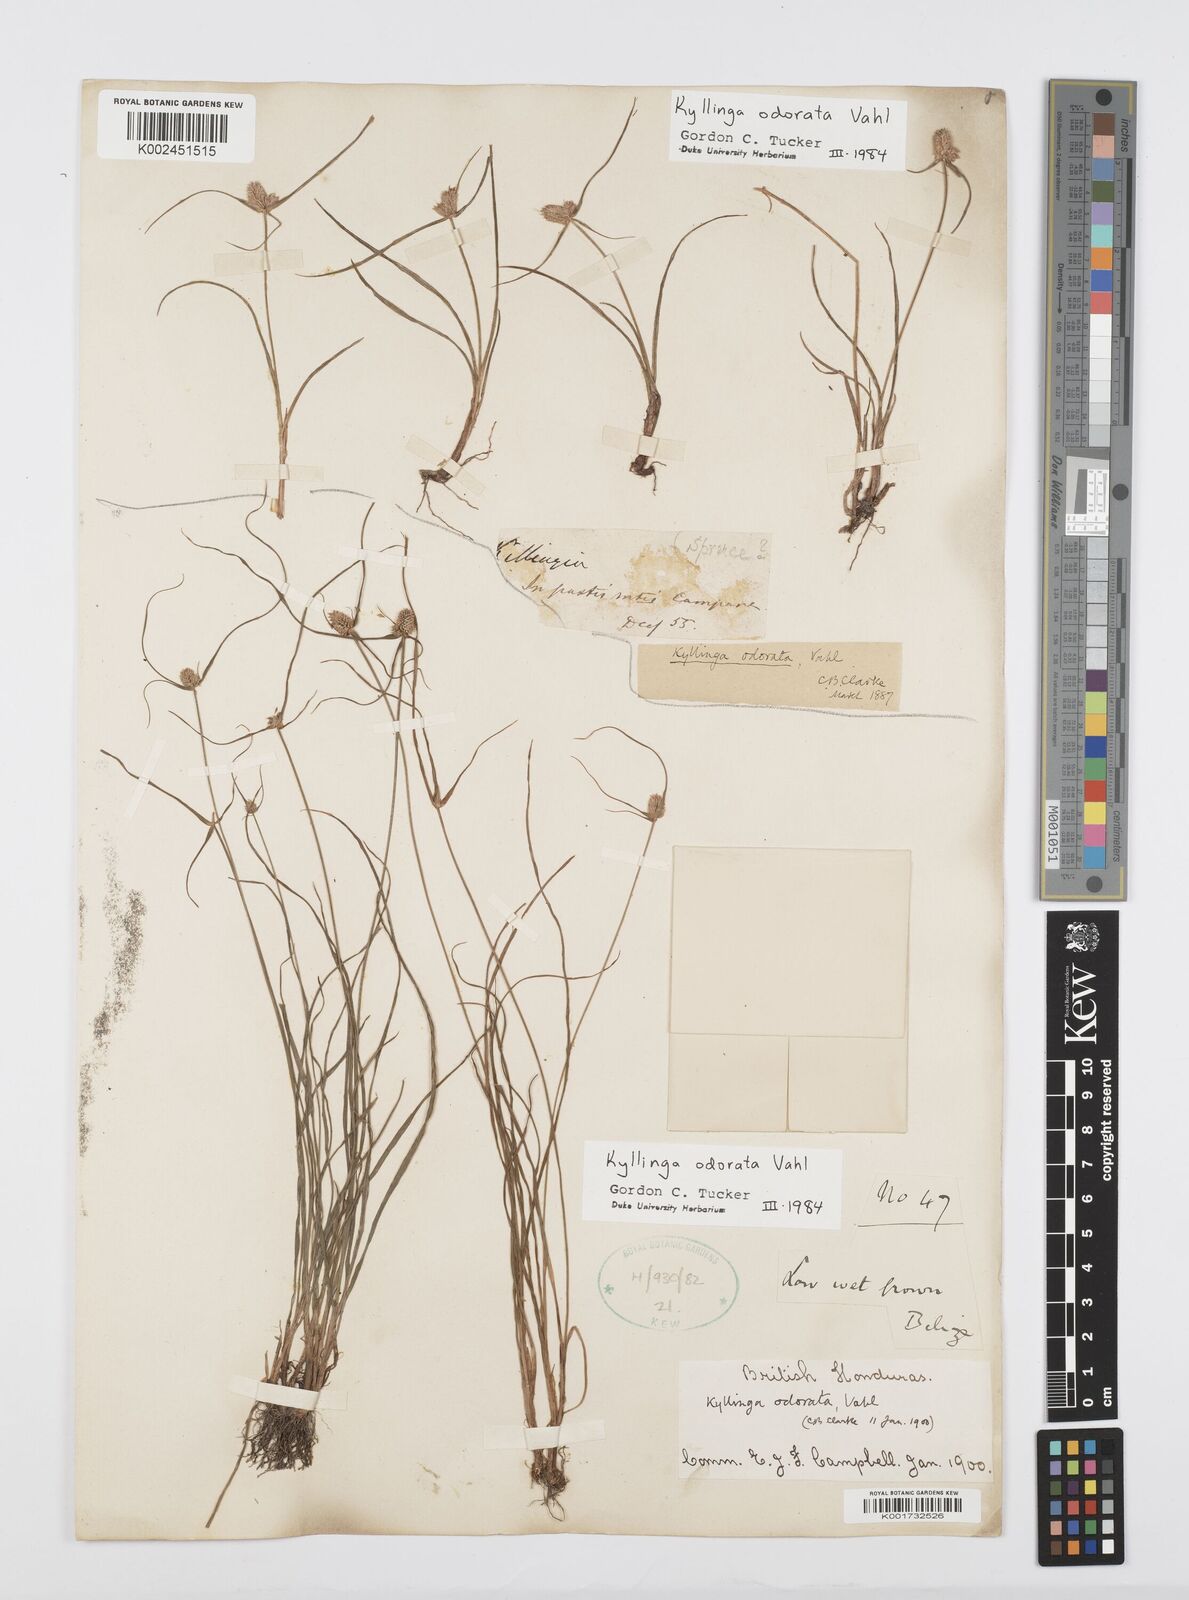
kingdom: Plantae
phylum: Tracheophyta
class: Liliopsida
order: Poales
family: Cyperaceae
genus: Cyperus
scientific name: Cyperus sesquiflorus
